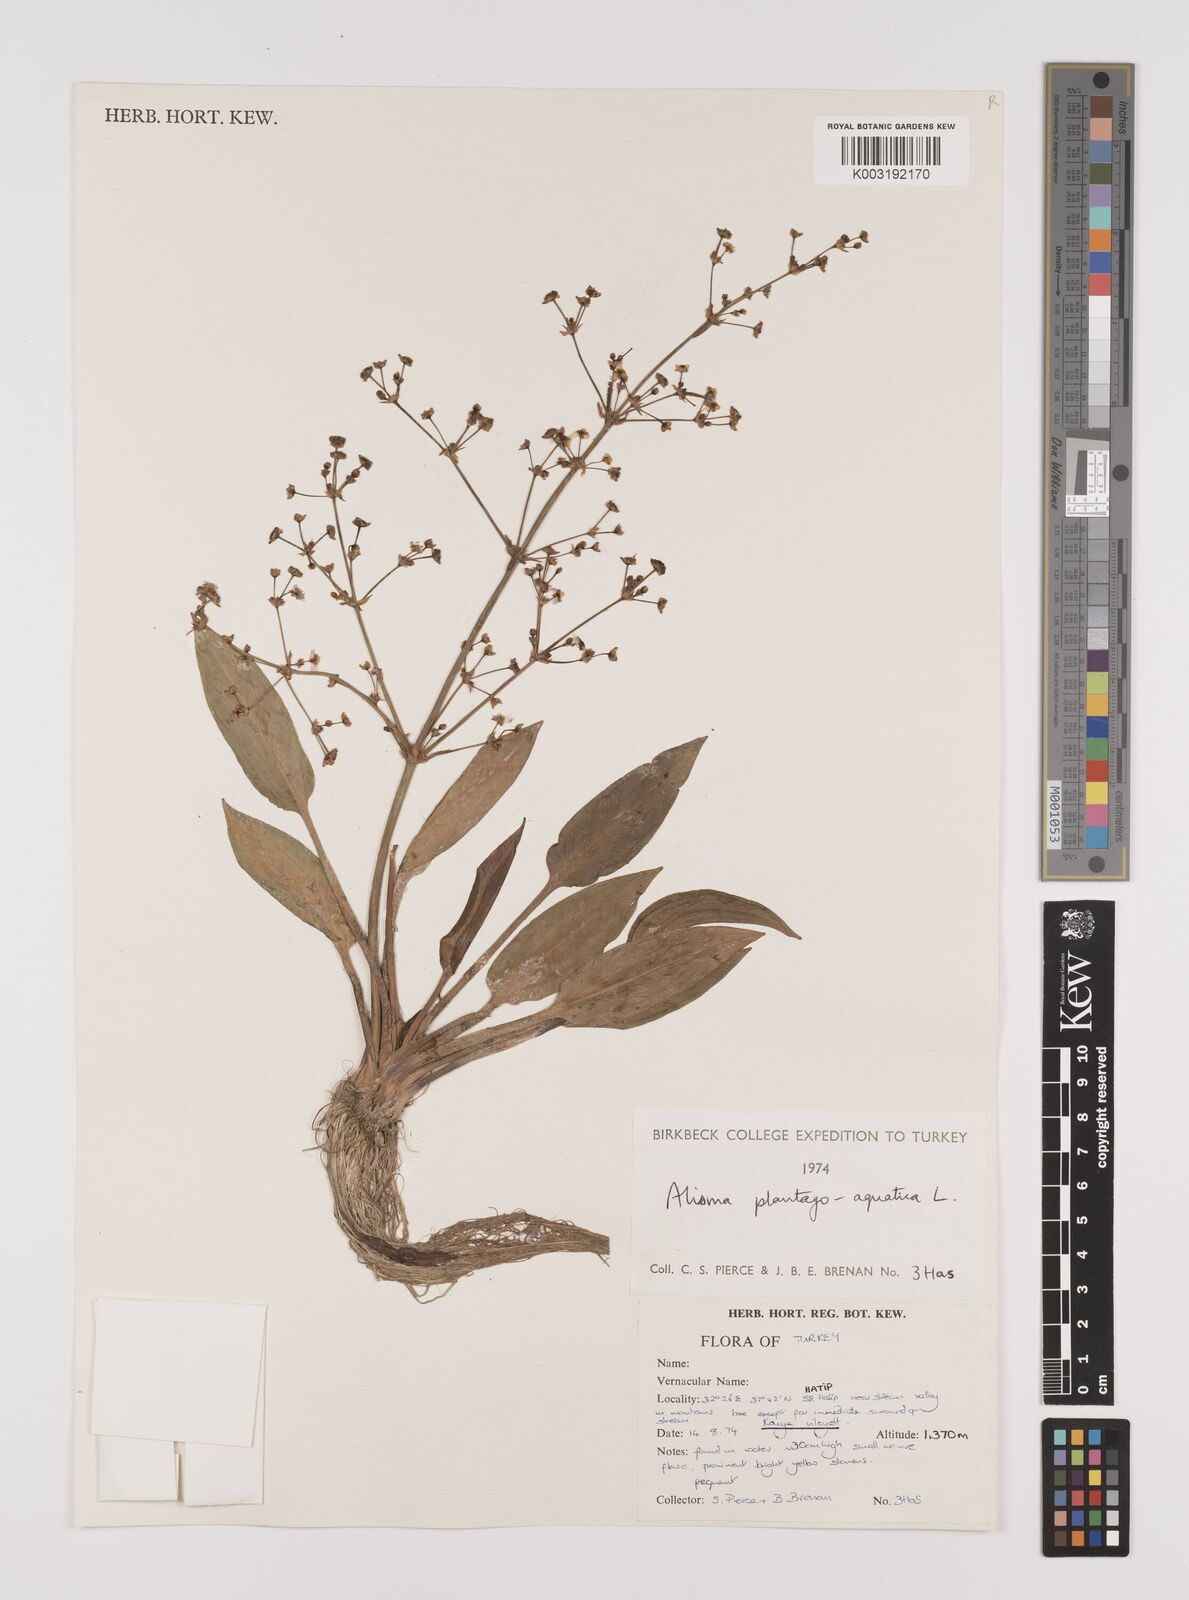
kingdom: Plantae
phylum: Tracheophyta
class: Liliopsida
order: Alismatales
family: Alismataceae
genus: Alisma
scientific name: Alisma plantago-aquatica
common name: Water-plantain
